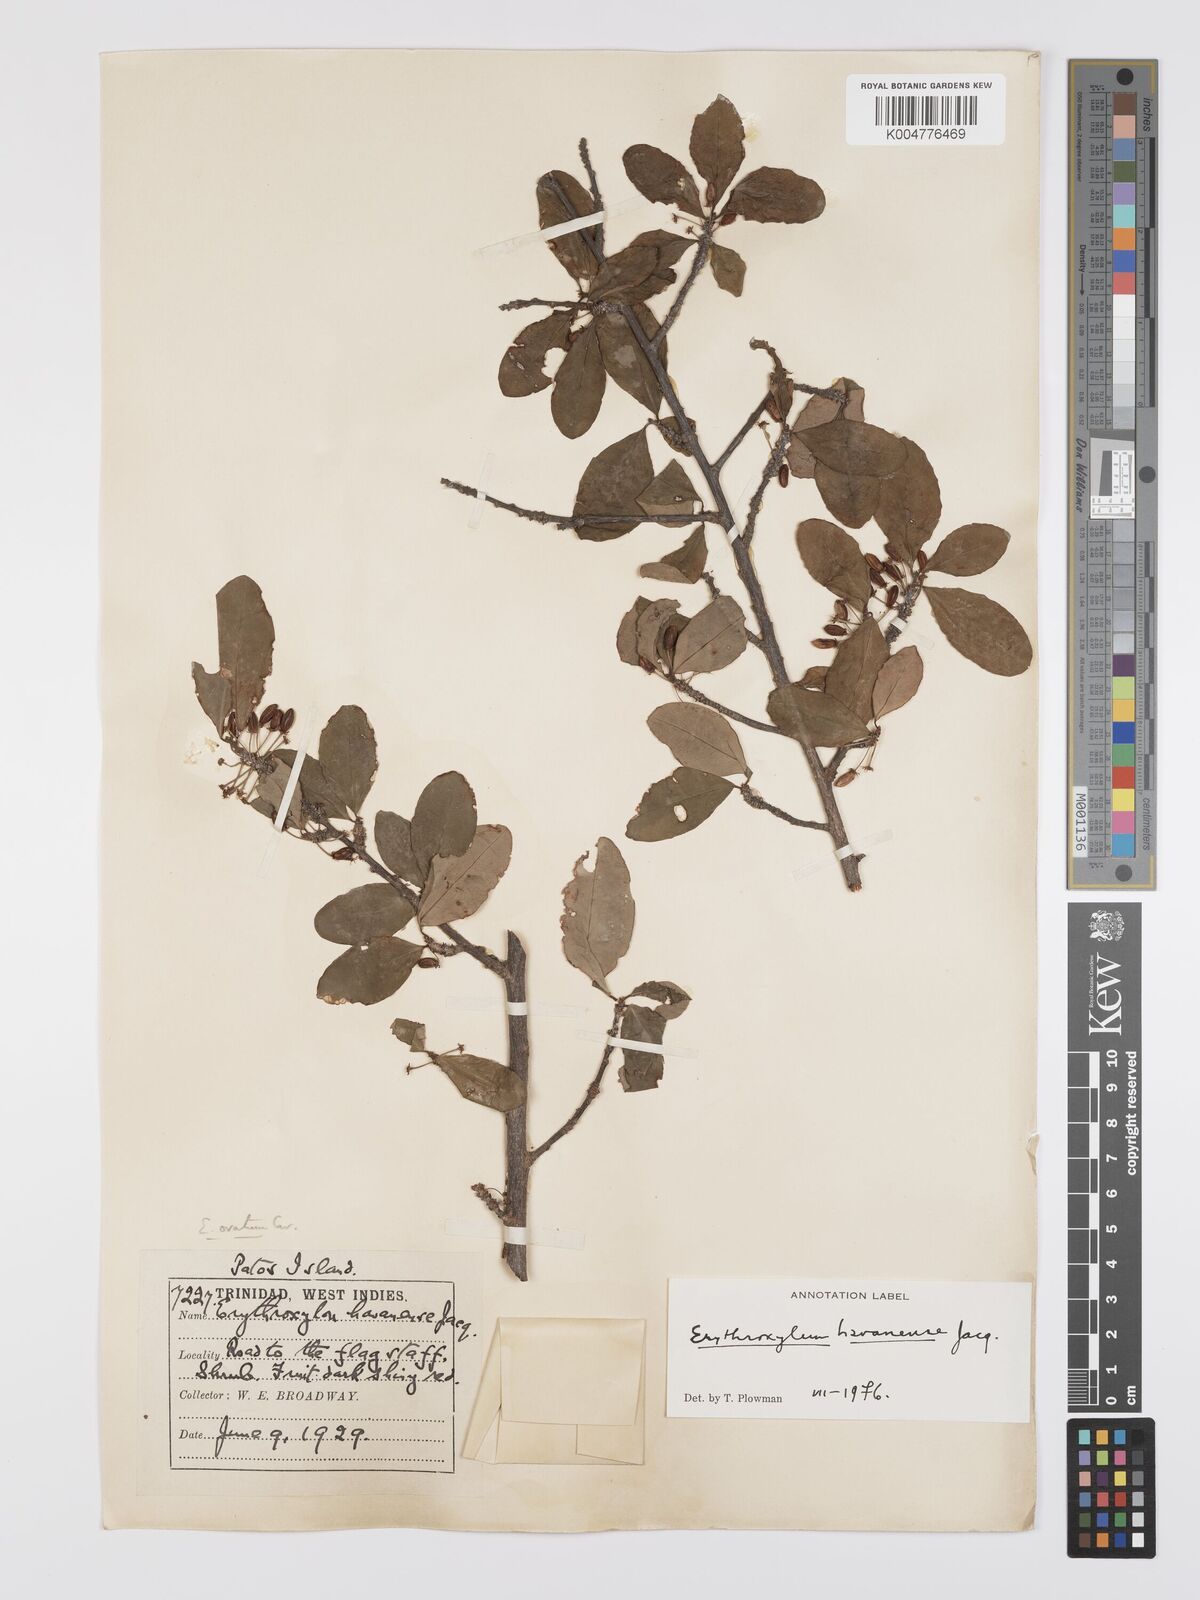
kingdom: Plantae
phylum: Tracheophyta
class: Magnoliopsida
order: Malpighiales
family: Erythroxylaceae
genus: Erythroxylum
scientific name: Erythroxylum
